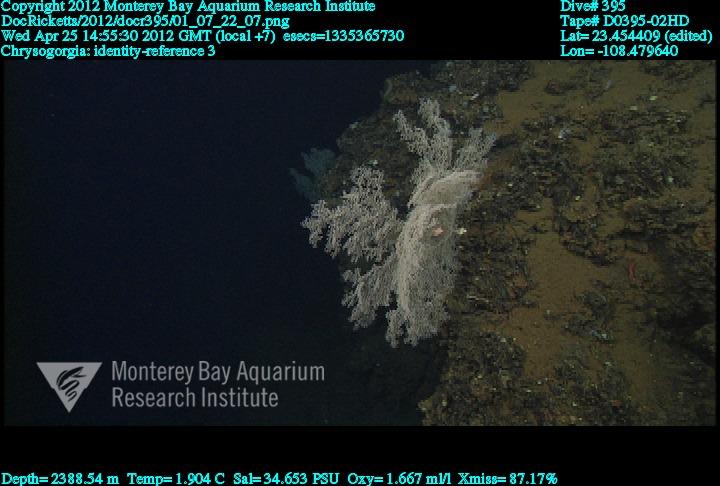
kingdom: Animalia
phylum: Cnidaria
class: Anthozoa
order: Scleralcyonacea
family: Chrysogorgiidae
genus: Chrysogorgia
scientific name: Chrysogorgia
